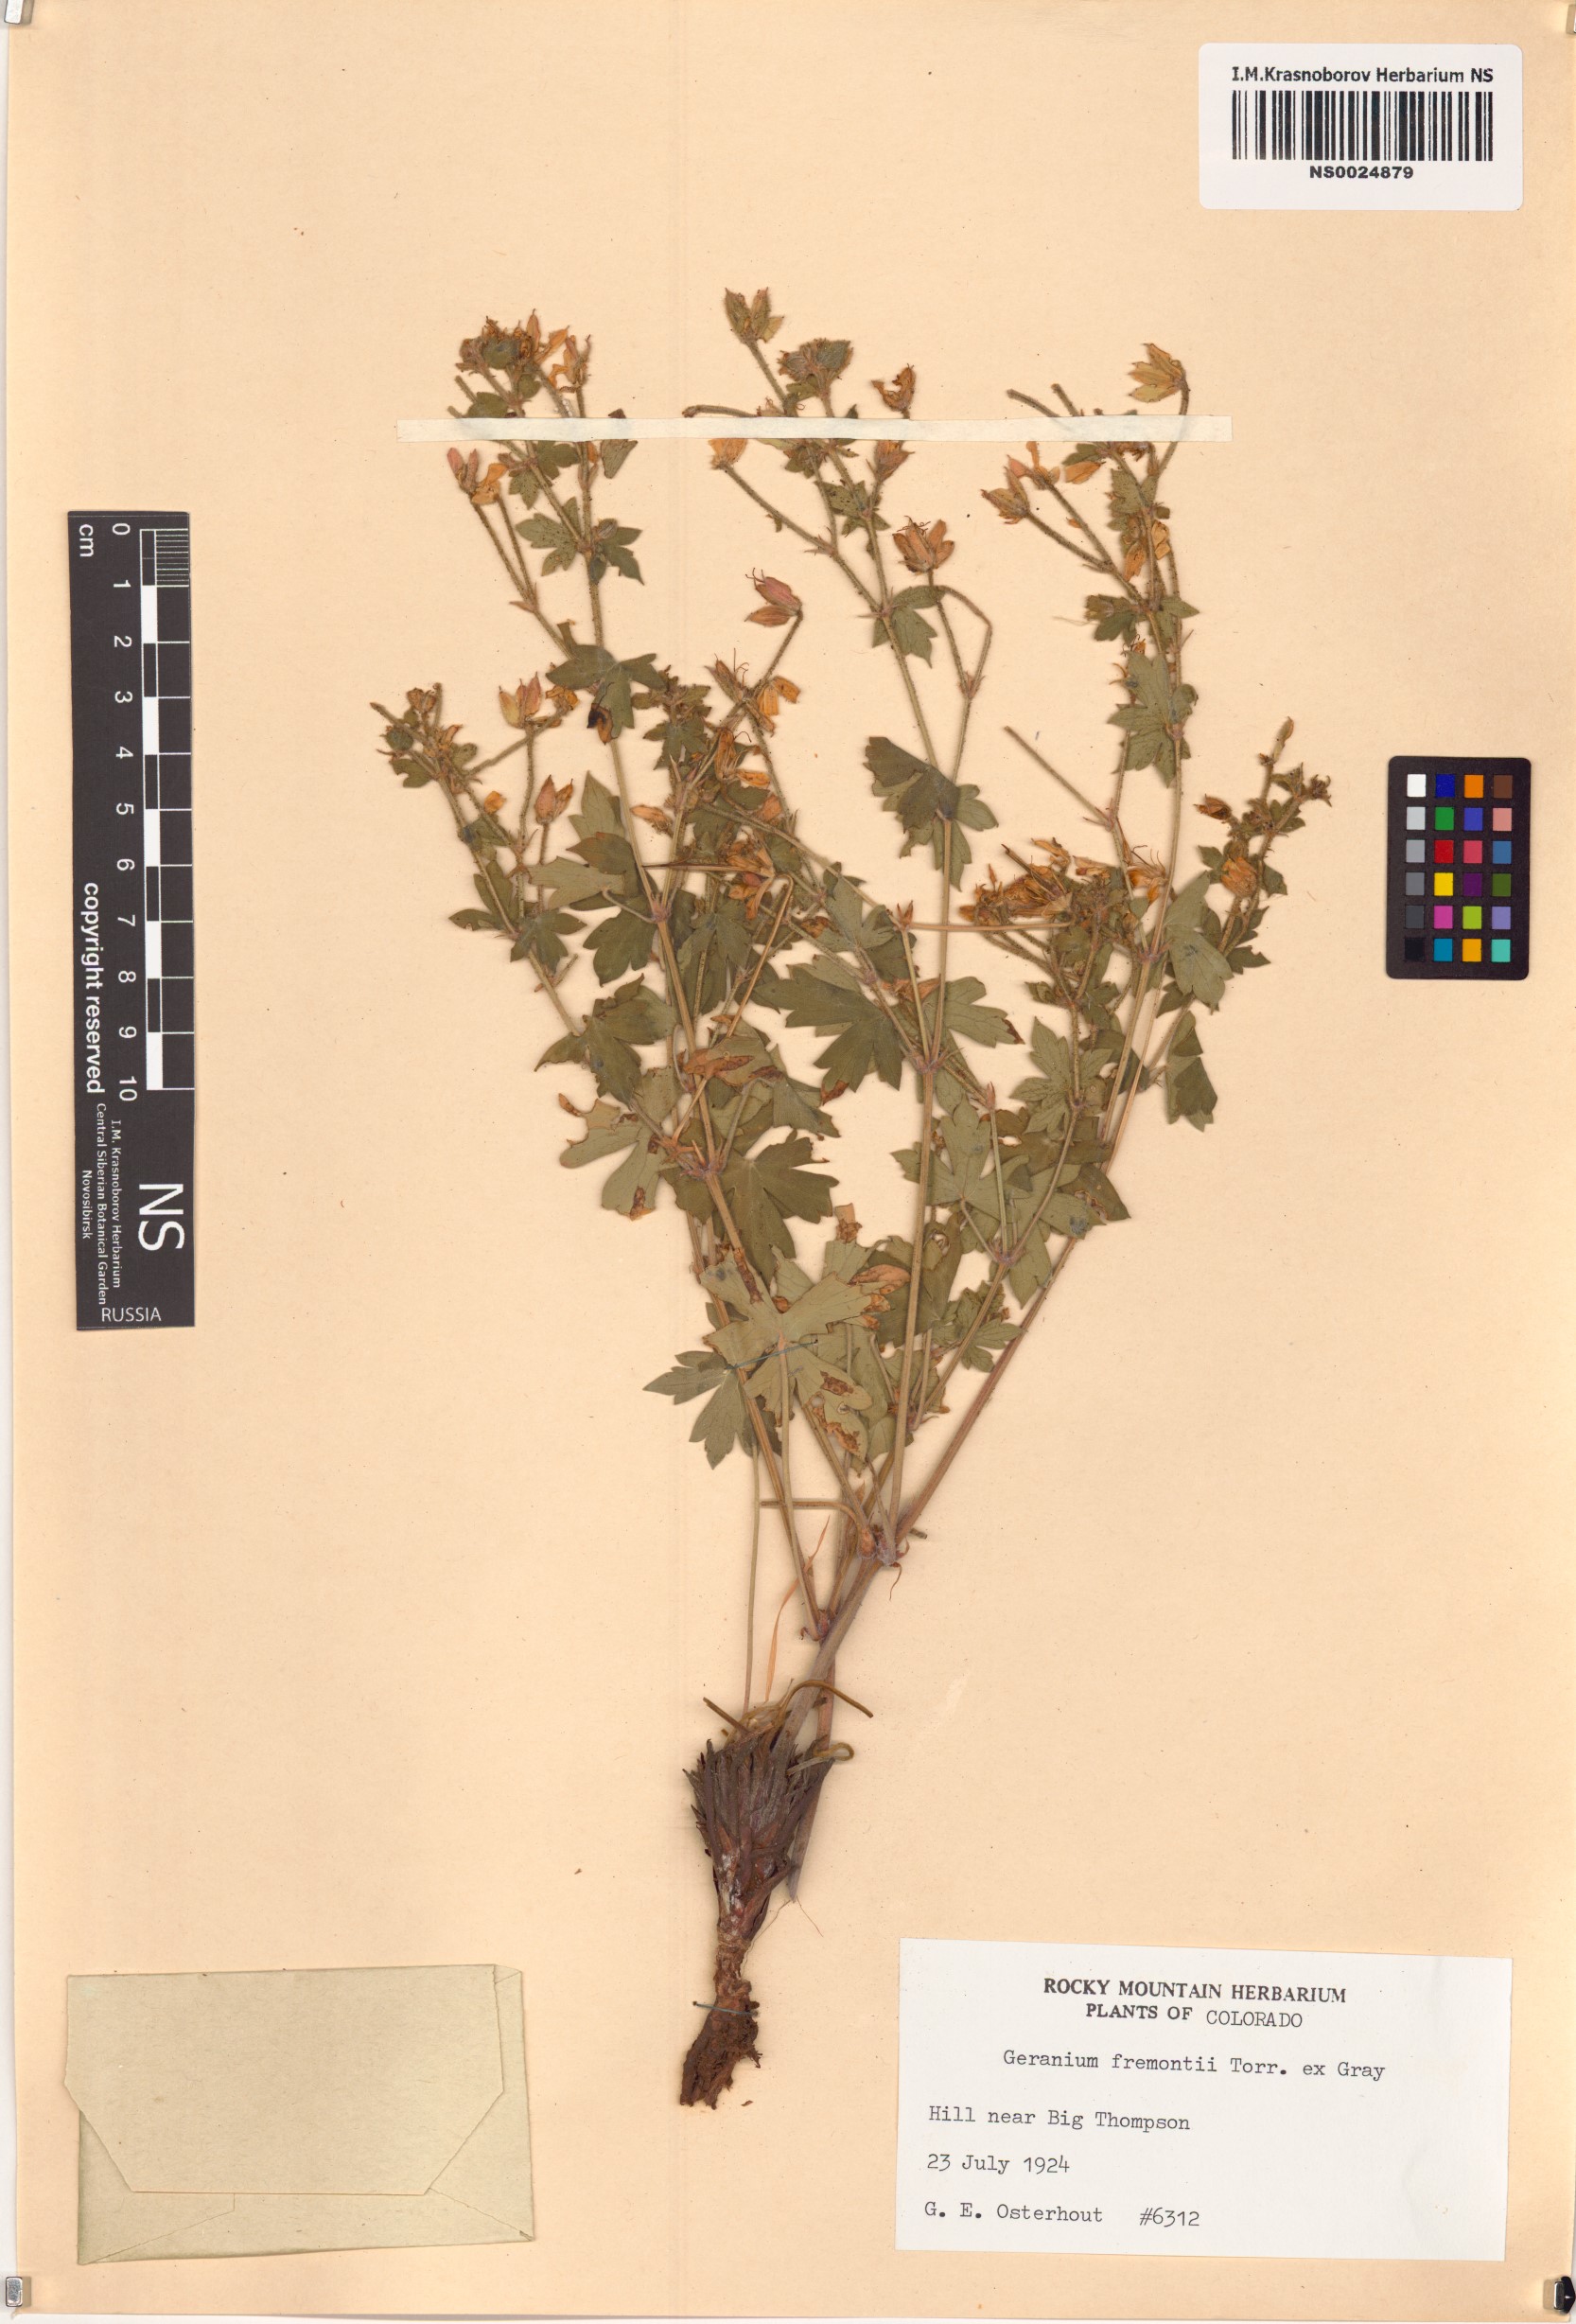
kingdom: Plantae
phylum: Tracheophyta
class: Magnoliopsida
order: Geraniales
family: Geraniaceae
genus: Geranium
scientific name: Geranium caespitosum
